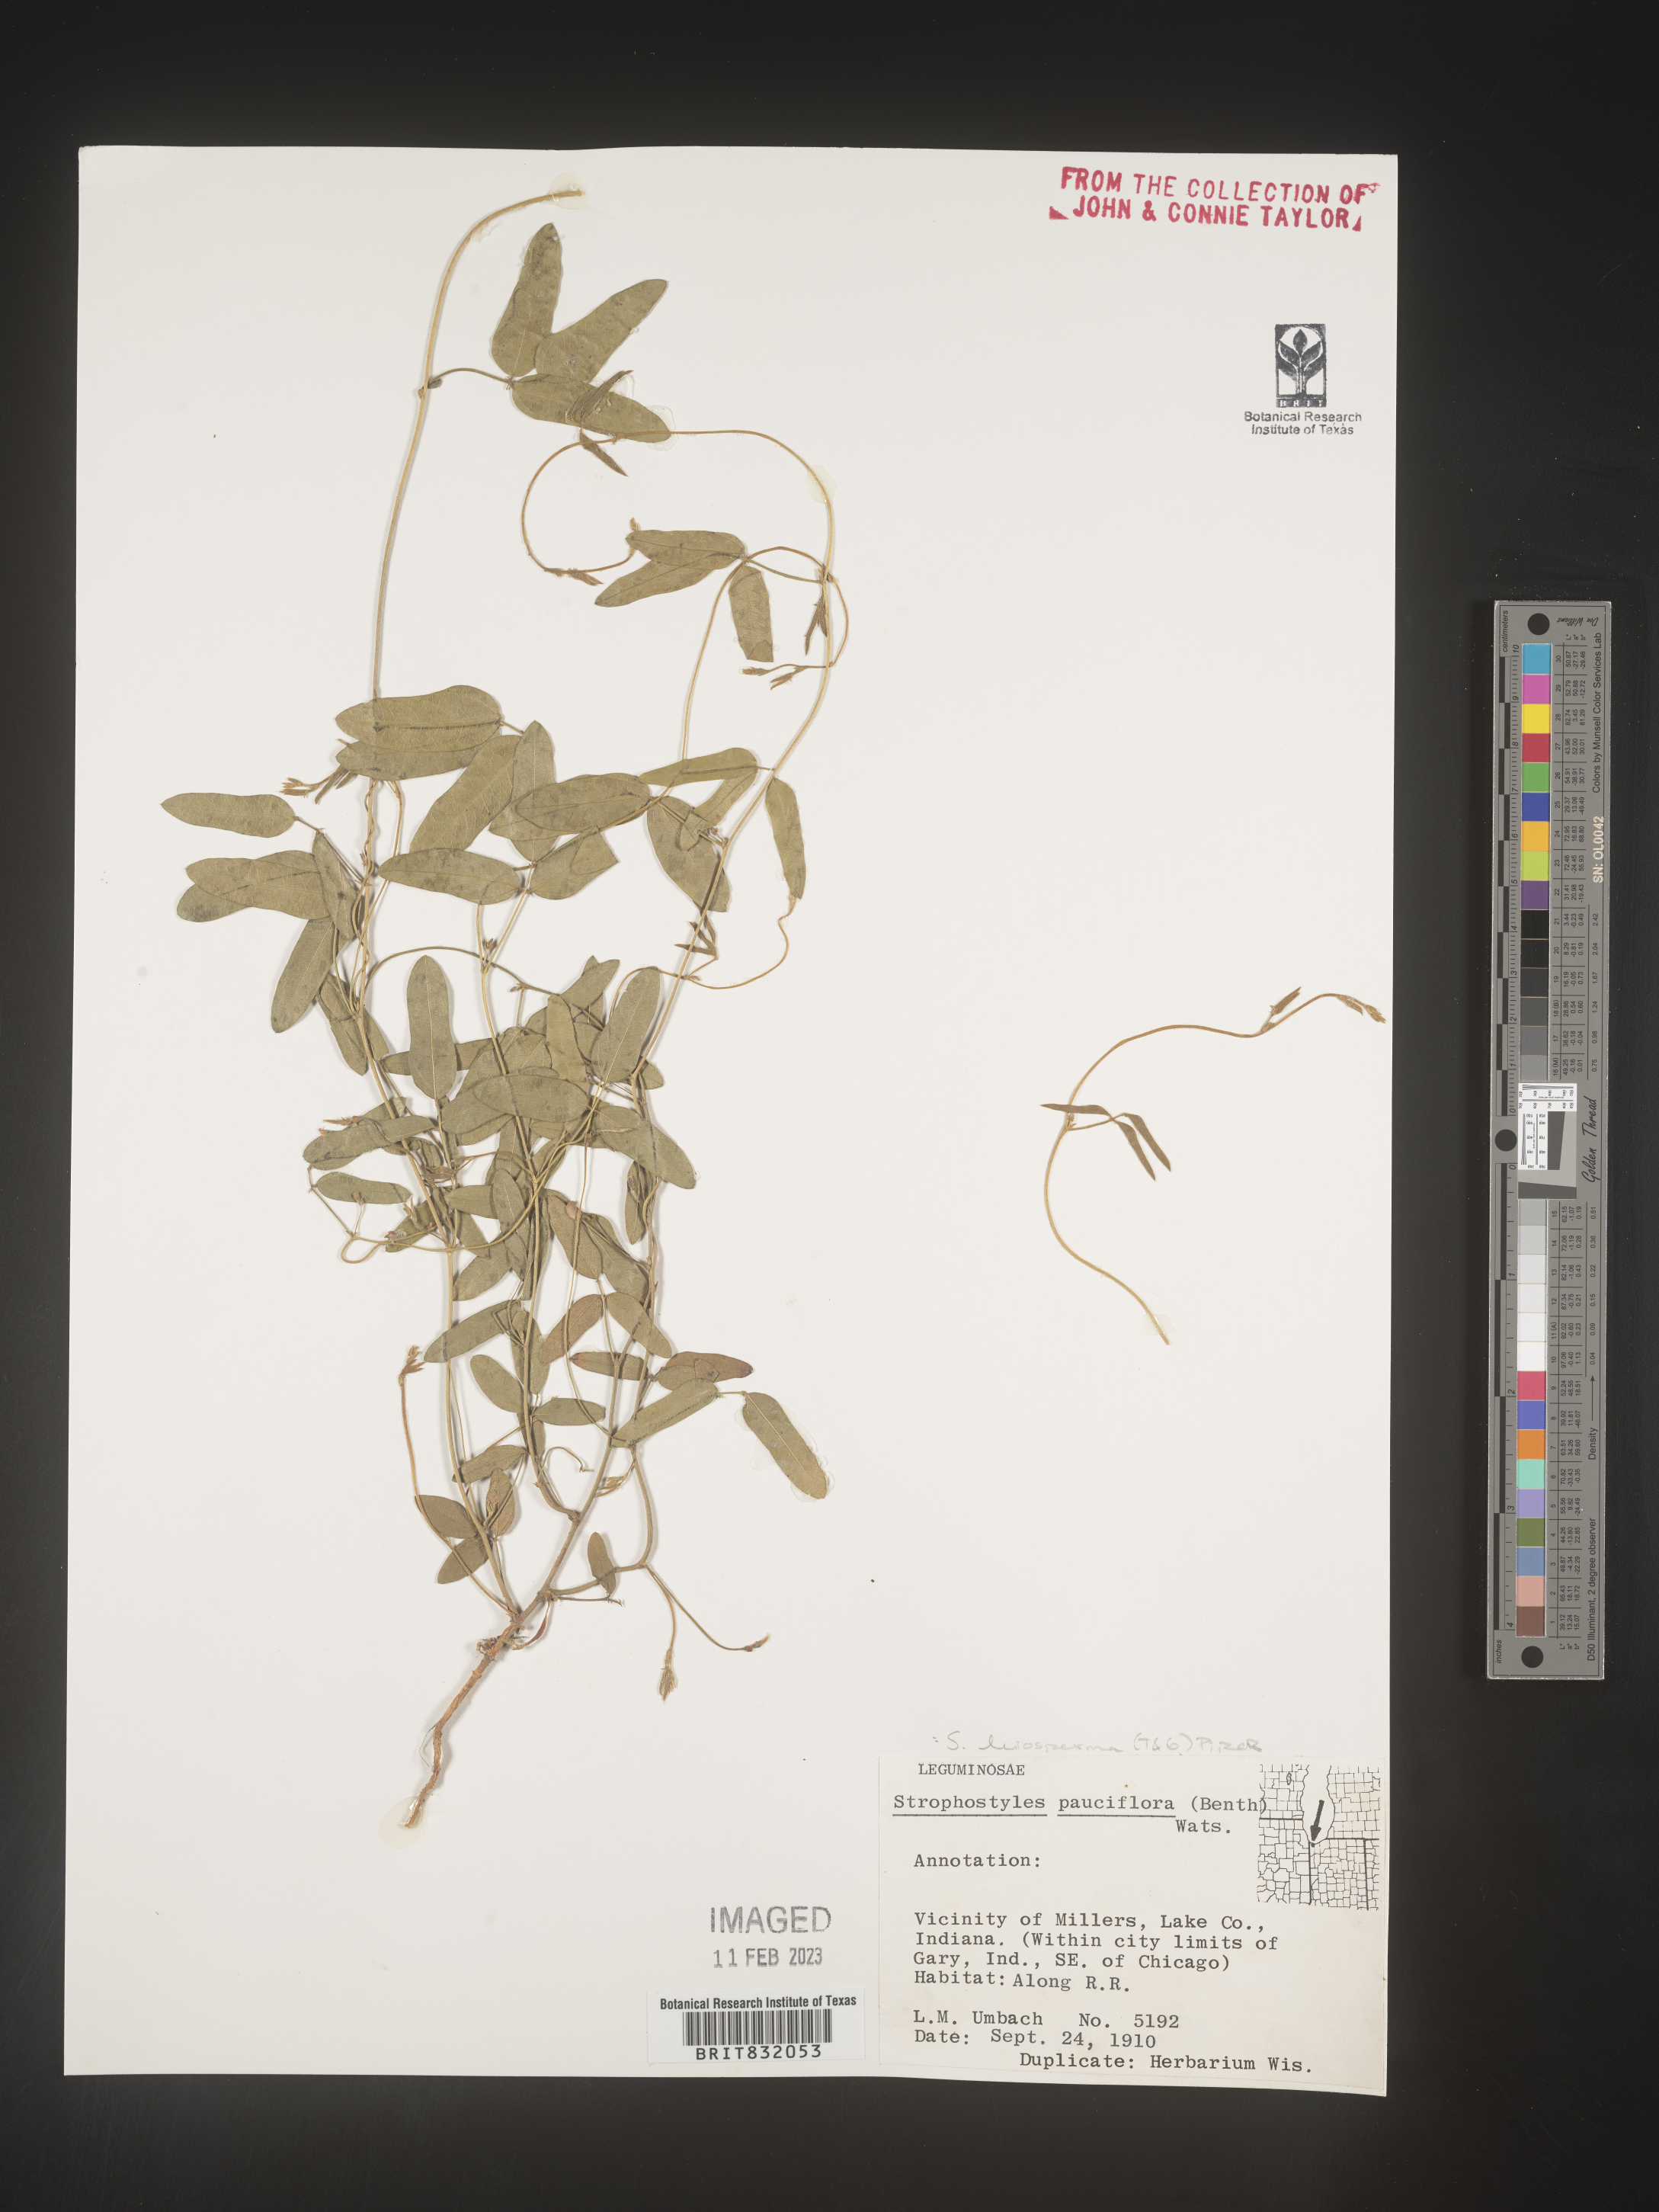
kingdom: Plantae
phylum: Tracheophyta
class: Magnoliopsida
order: Fabales
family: Fabaceae
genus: Strophostyles
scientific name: Strophostyles leiosperma
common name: Smooth-seed wild bean
